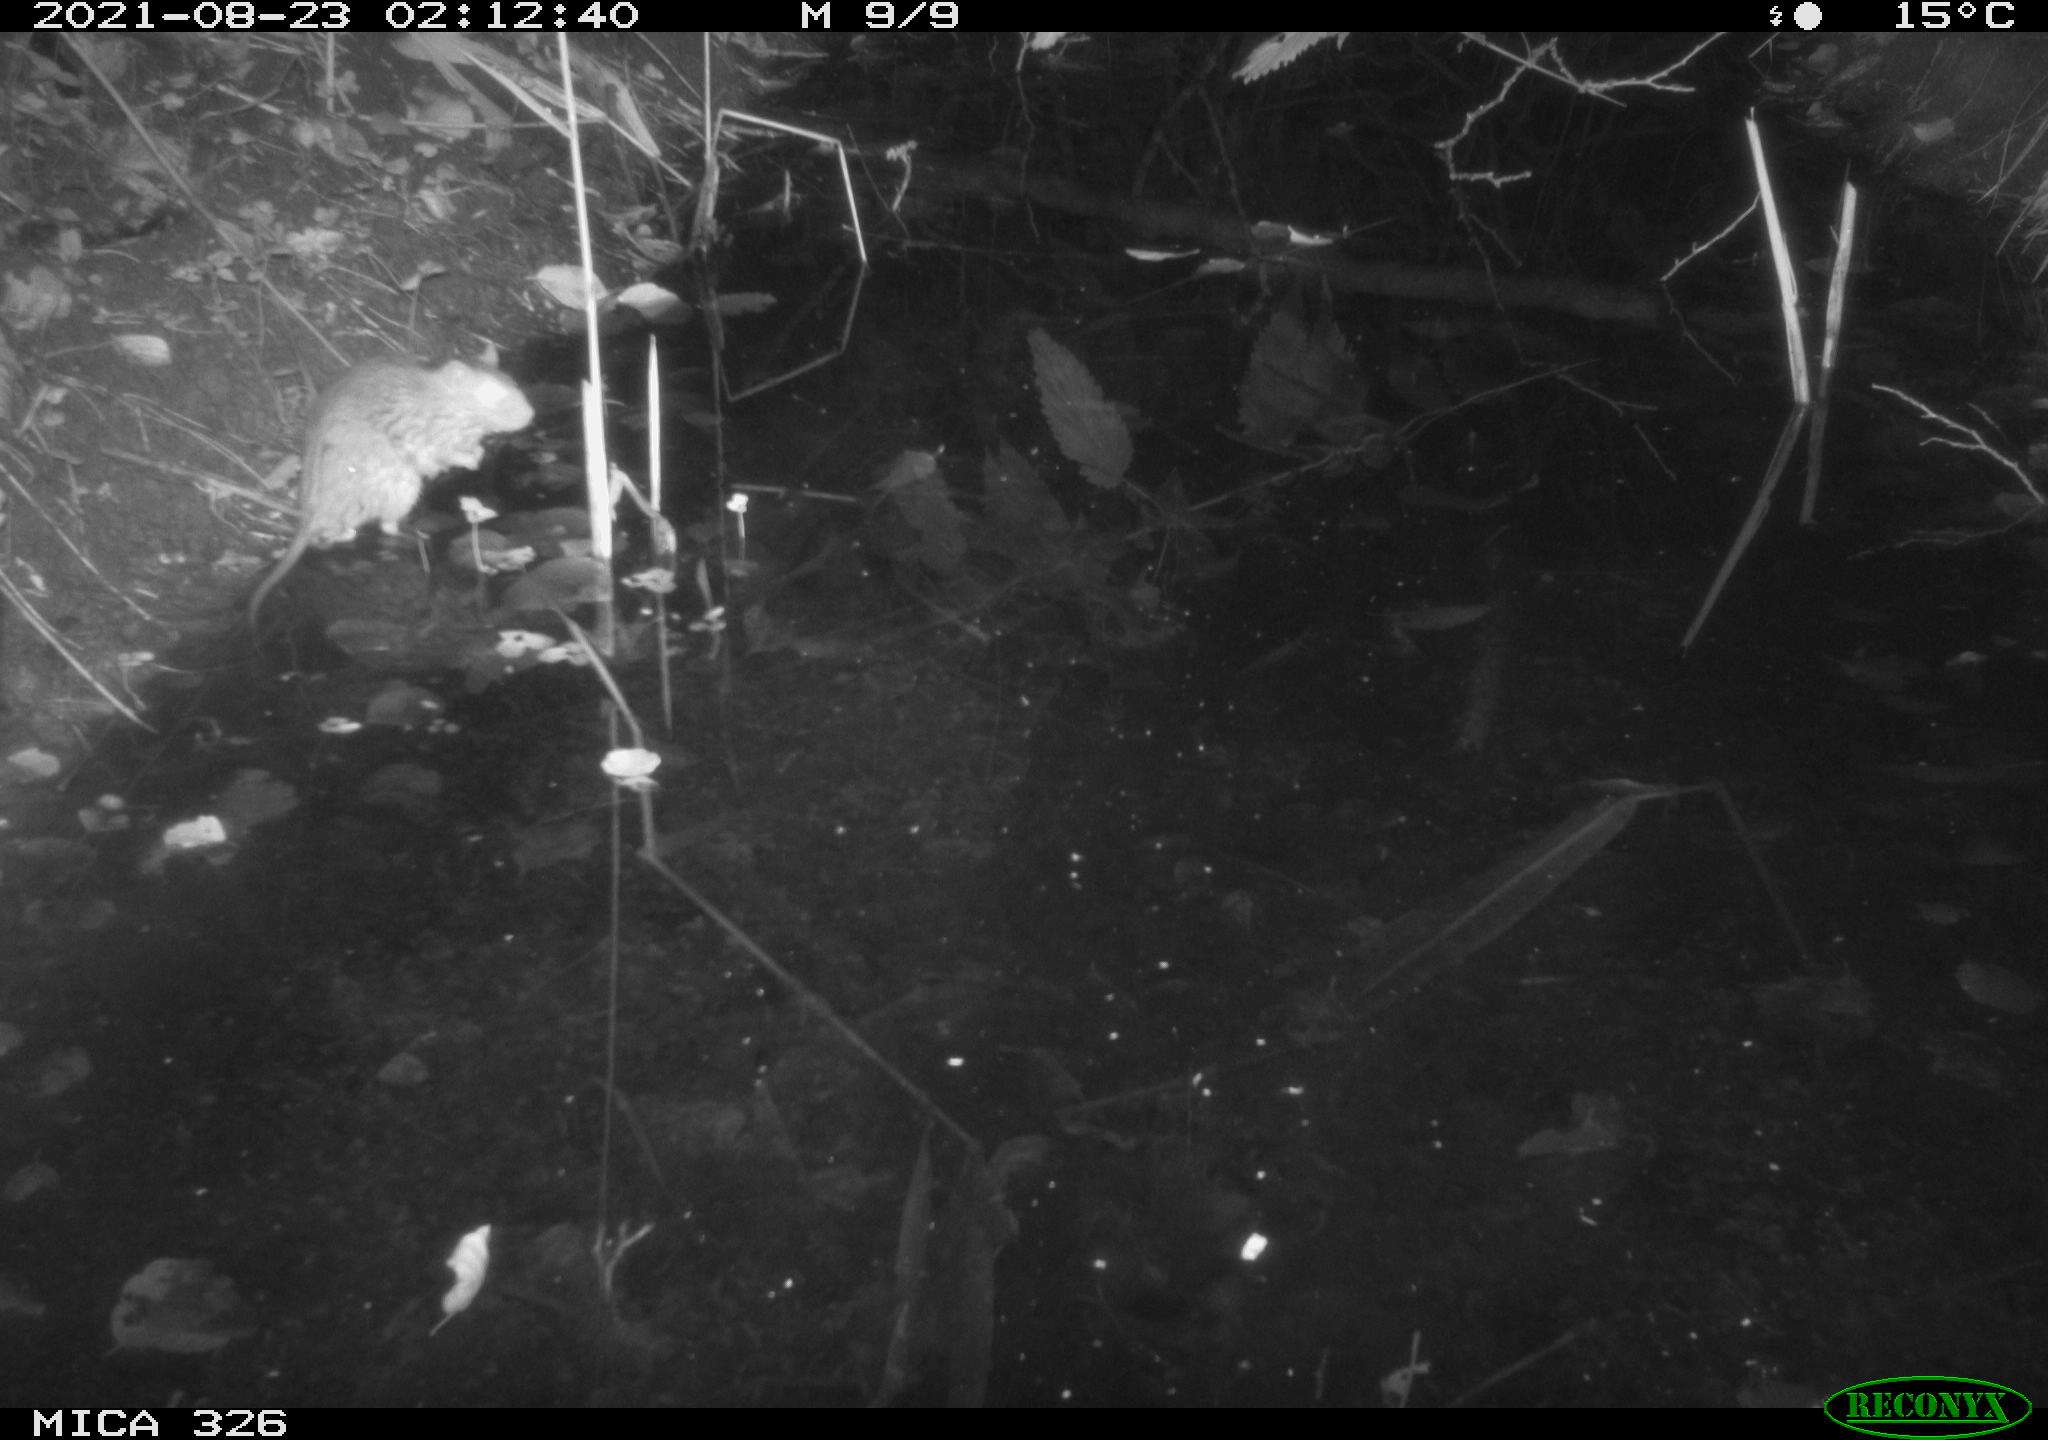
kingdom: Animalia
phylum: Chordata
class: Mammalia
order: Rodentia
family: Muridae
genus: Rattus
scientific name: Rattus norvegicus
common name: Brown rat
